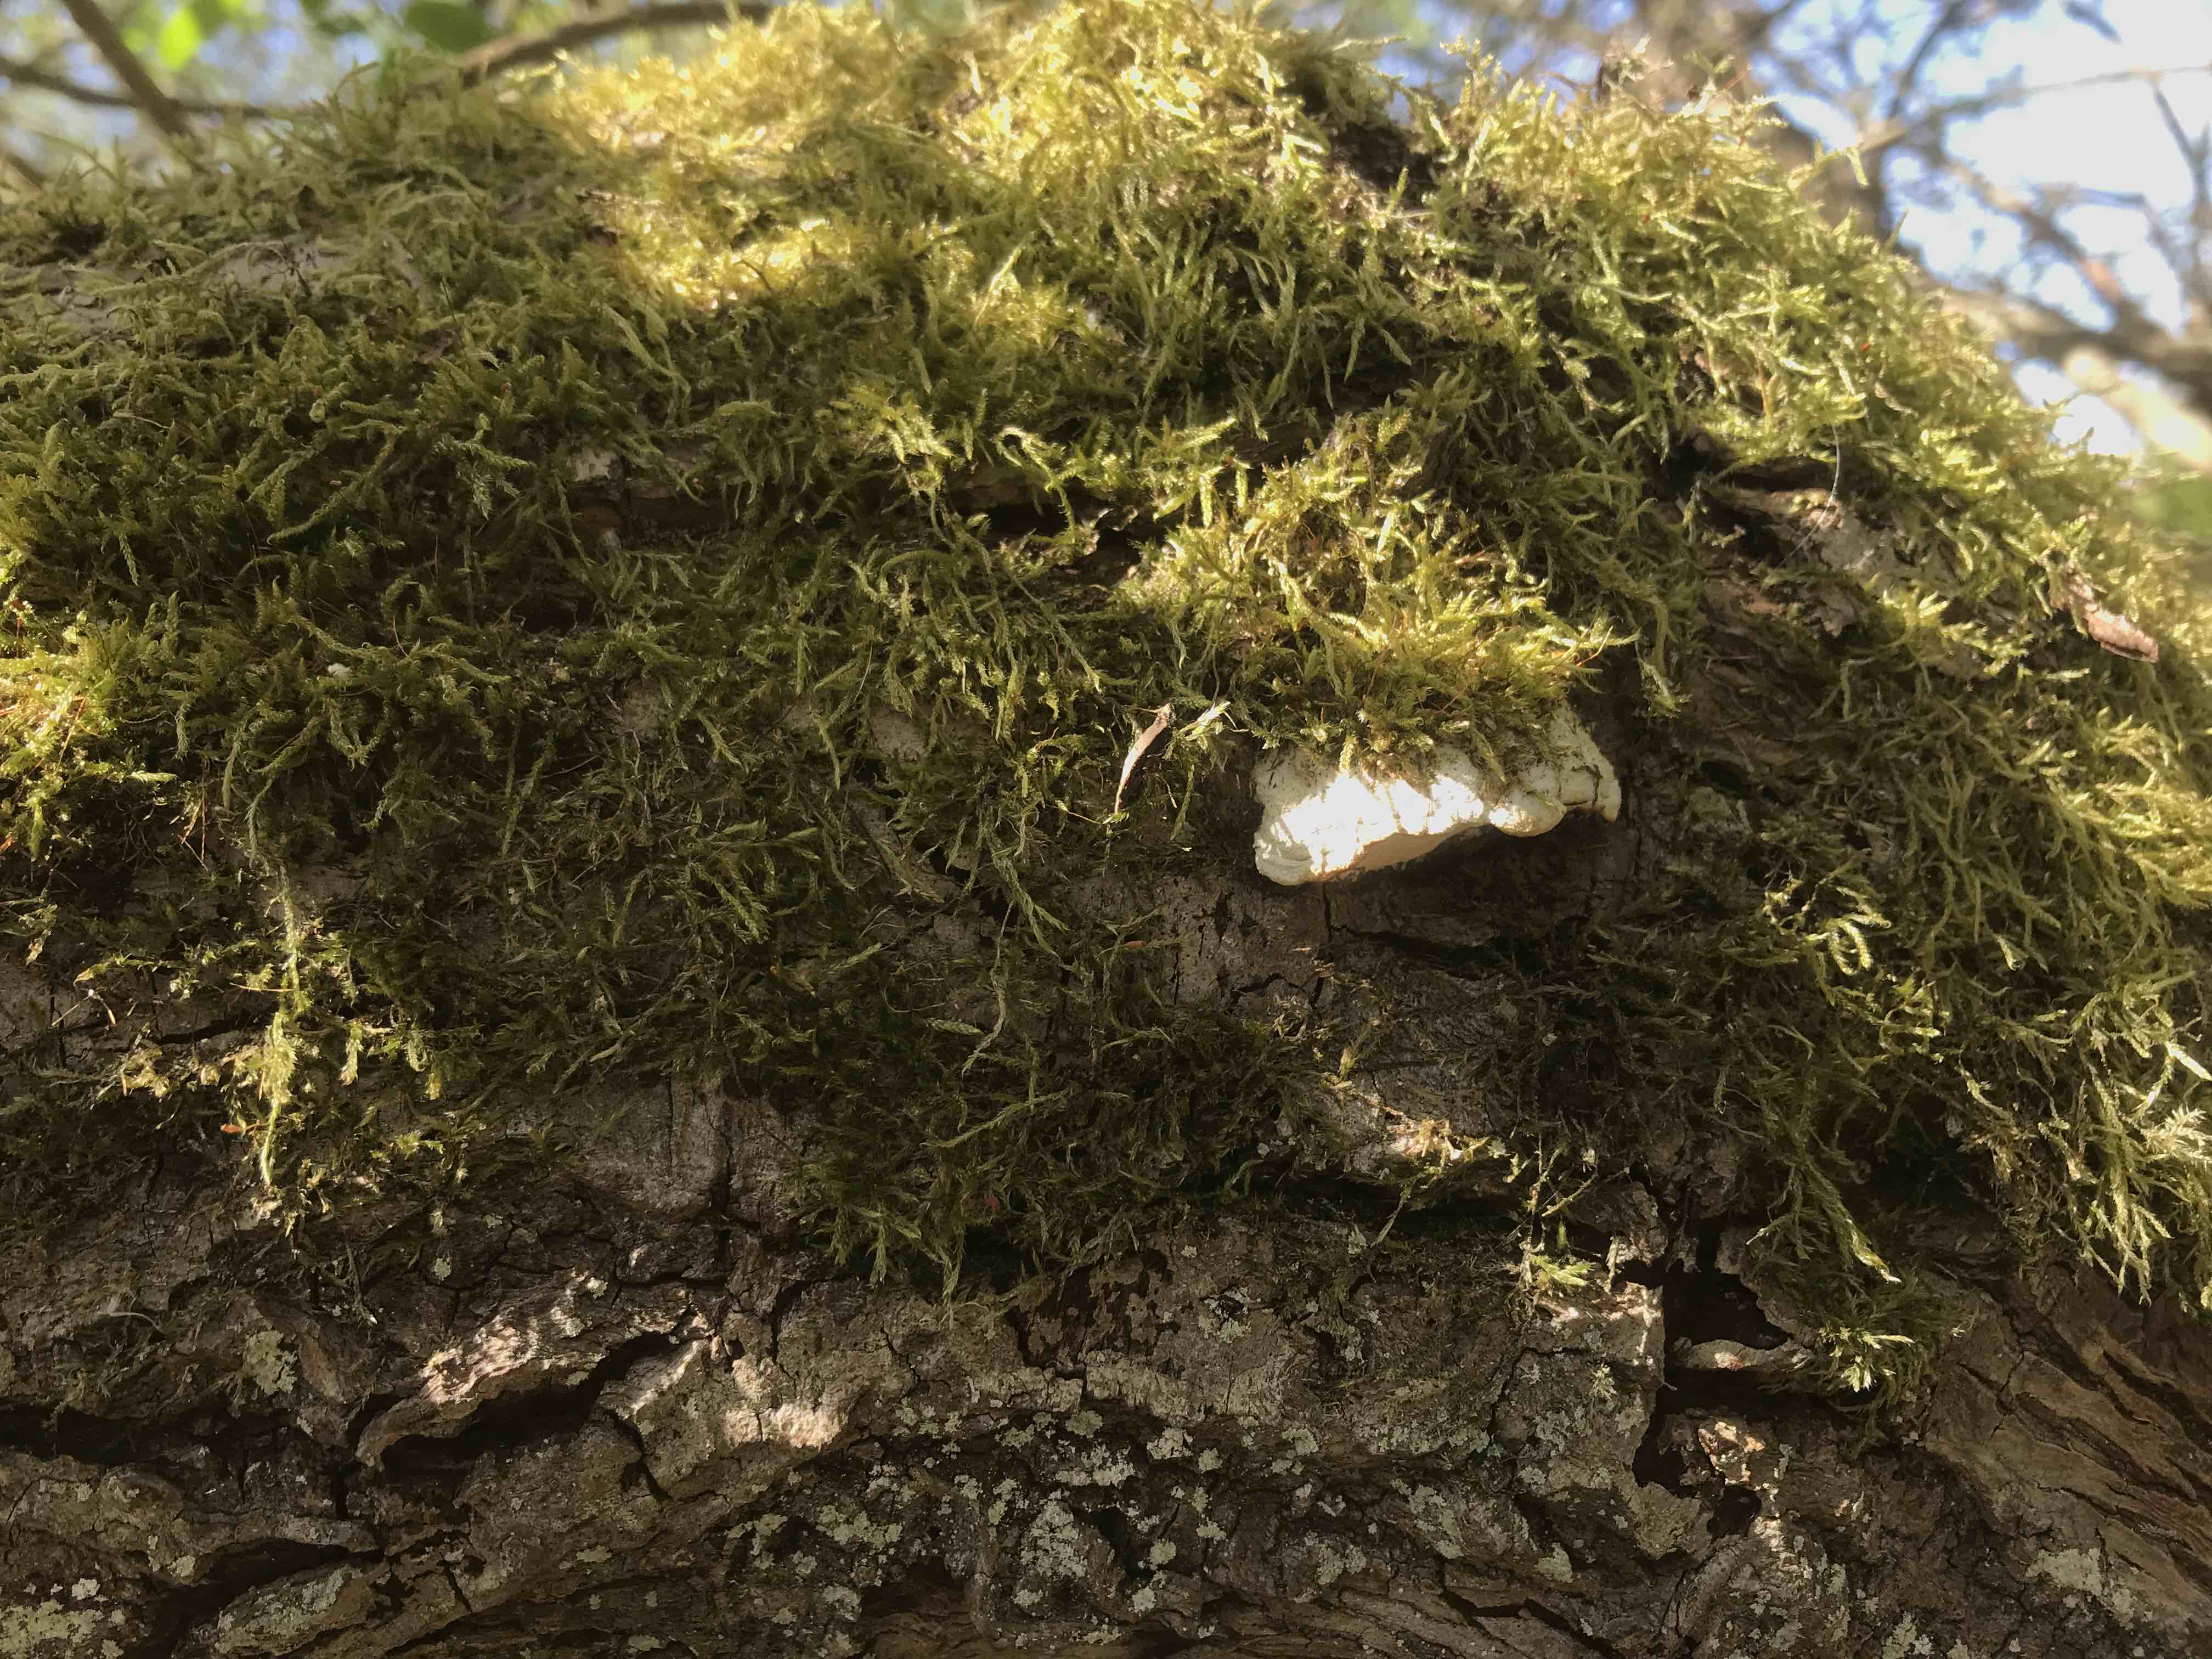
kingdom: Fungi
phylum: Basidiomycota
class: Agaricomycetes
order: Hymenochaetales
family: Oxyporaceae
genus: Oxyporus
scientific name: Oxyporus populinus
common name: sammenvokset trylleporesvamp
